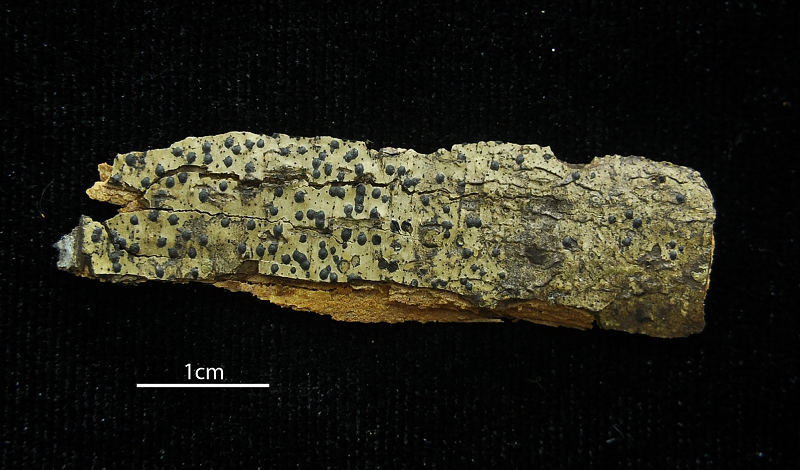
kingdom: Fungi
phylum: Ascomycota
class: Eurotiomycetes
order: Pyrenulales
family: Pyrenulaceae
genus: Pyrenula
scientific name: Pyrenula mamillana
